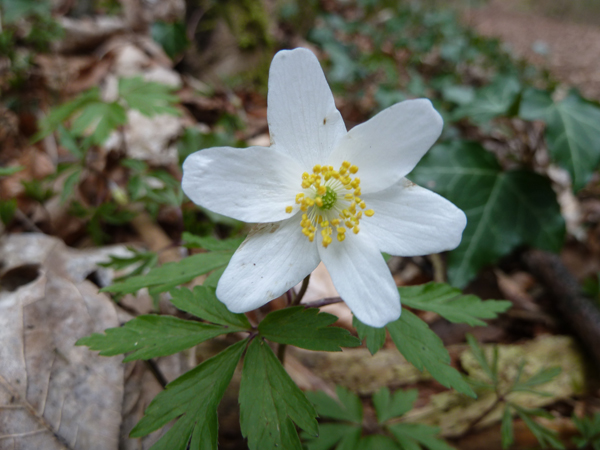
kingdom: Plantae
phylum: Tracheophyta
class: Magnoliopsida
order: Ranunculales
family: Ranunculaceae
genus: Anemone
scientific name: Anemone nemorosa
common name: Wood anemone
